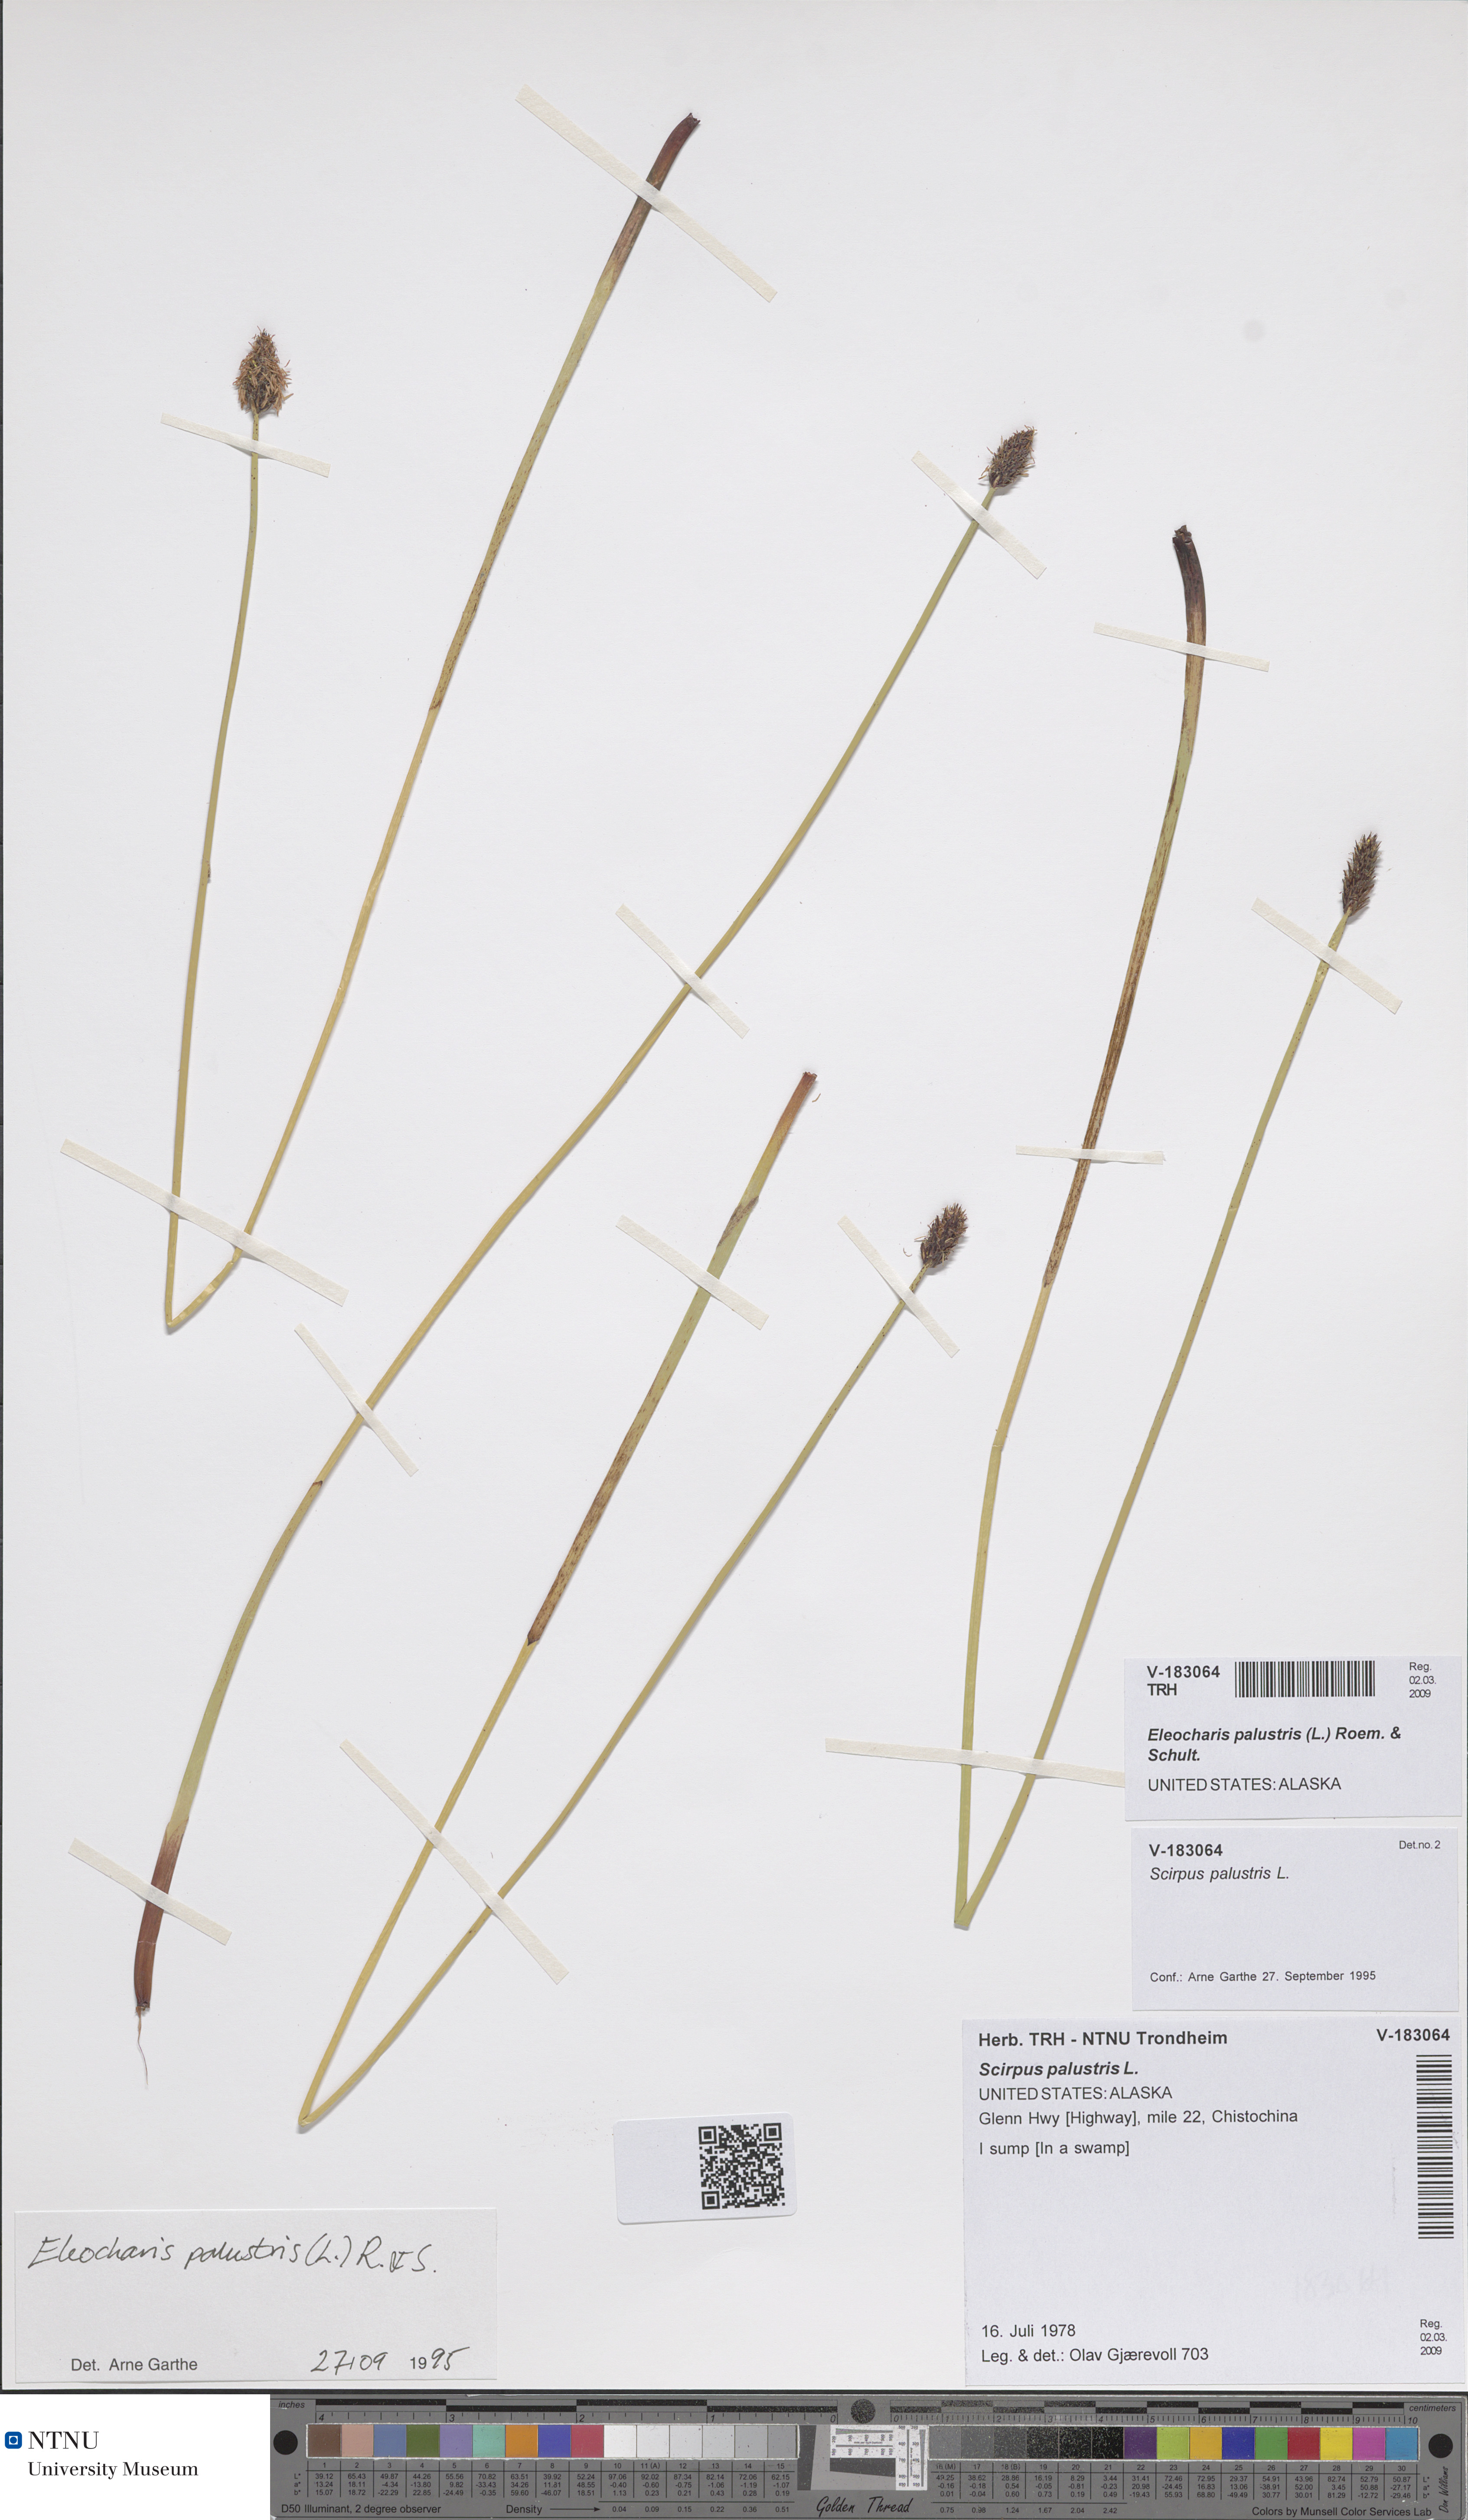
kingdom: Plantae
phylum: Tracheophyta
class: Liliopsida
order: Poales
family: Cyperaceae
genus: Eleocharis
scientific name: Eleocharis palustris
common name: Common spike-rush
